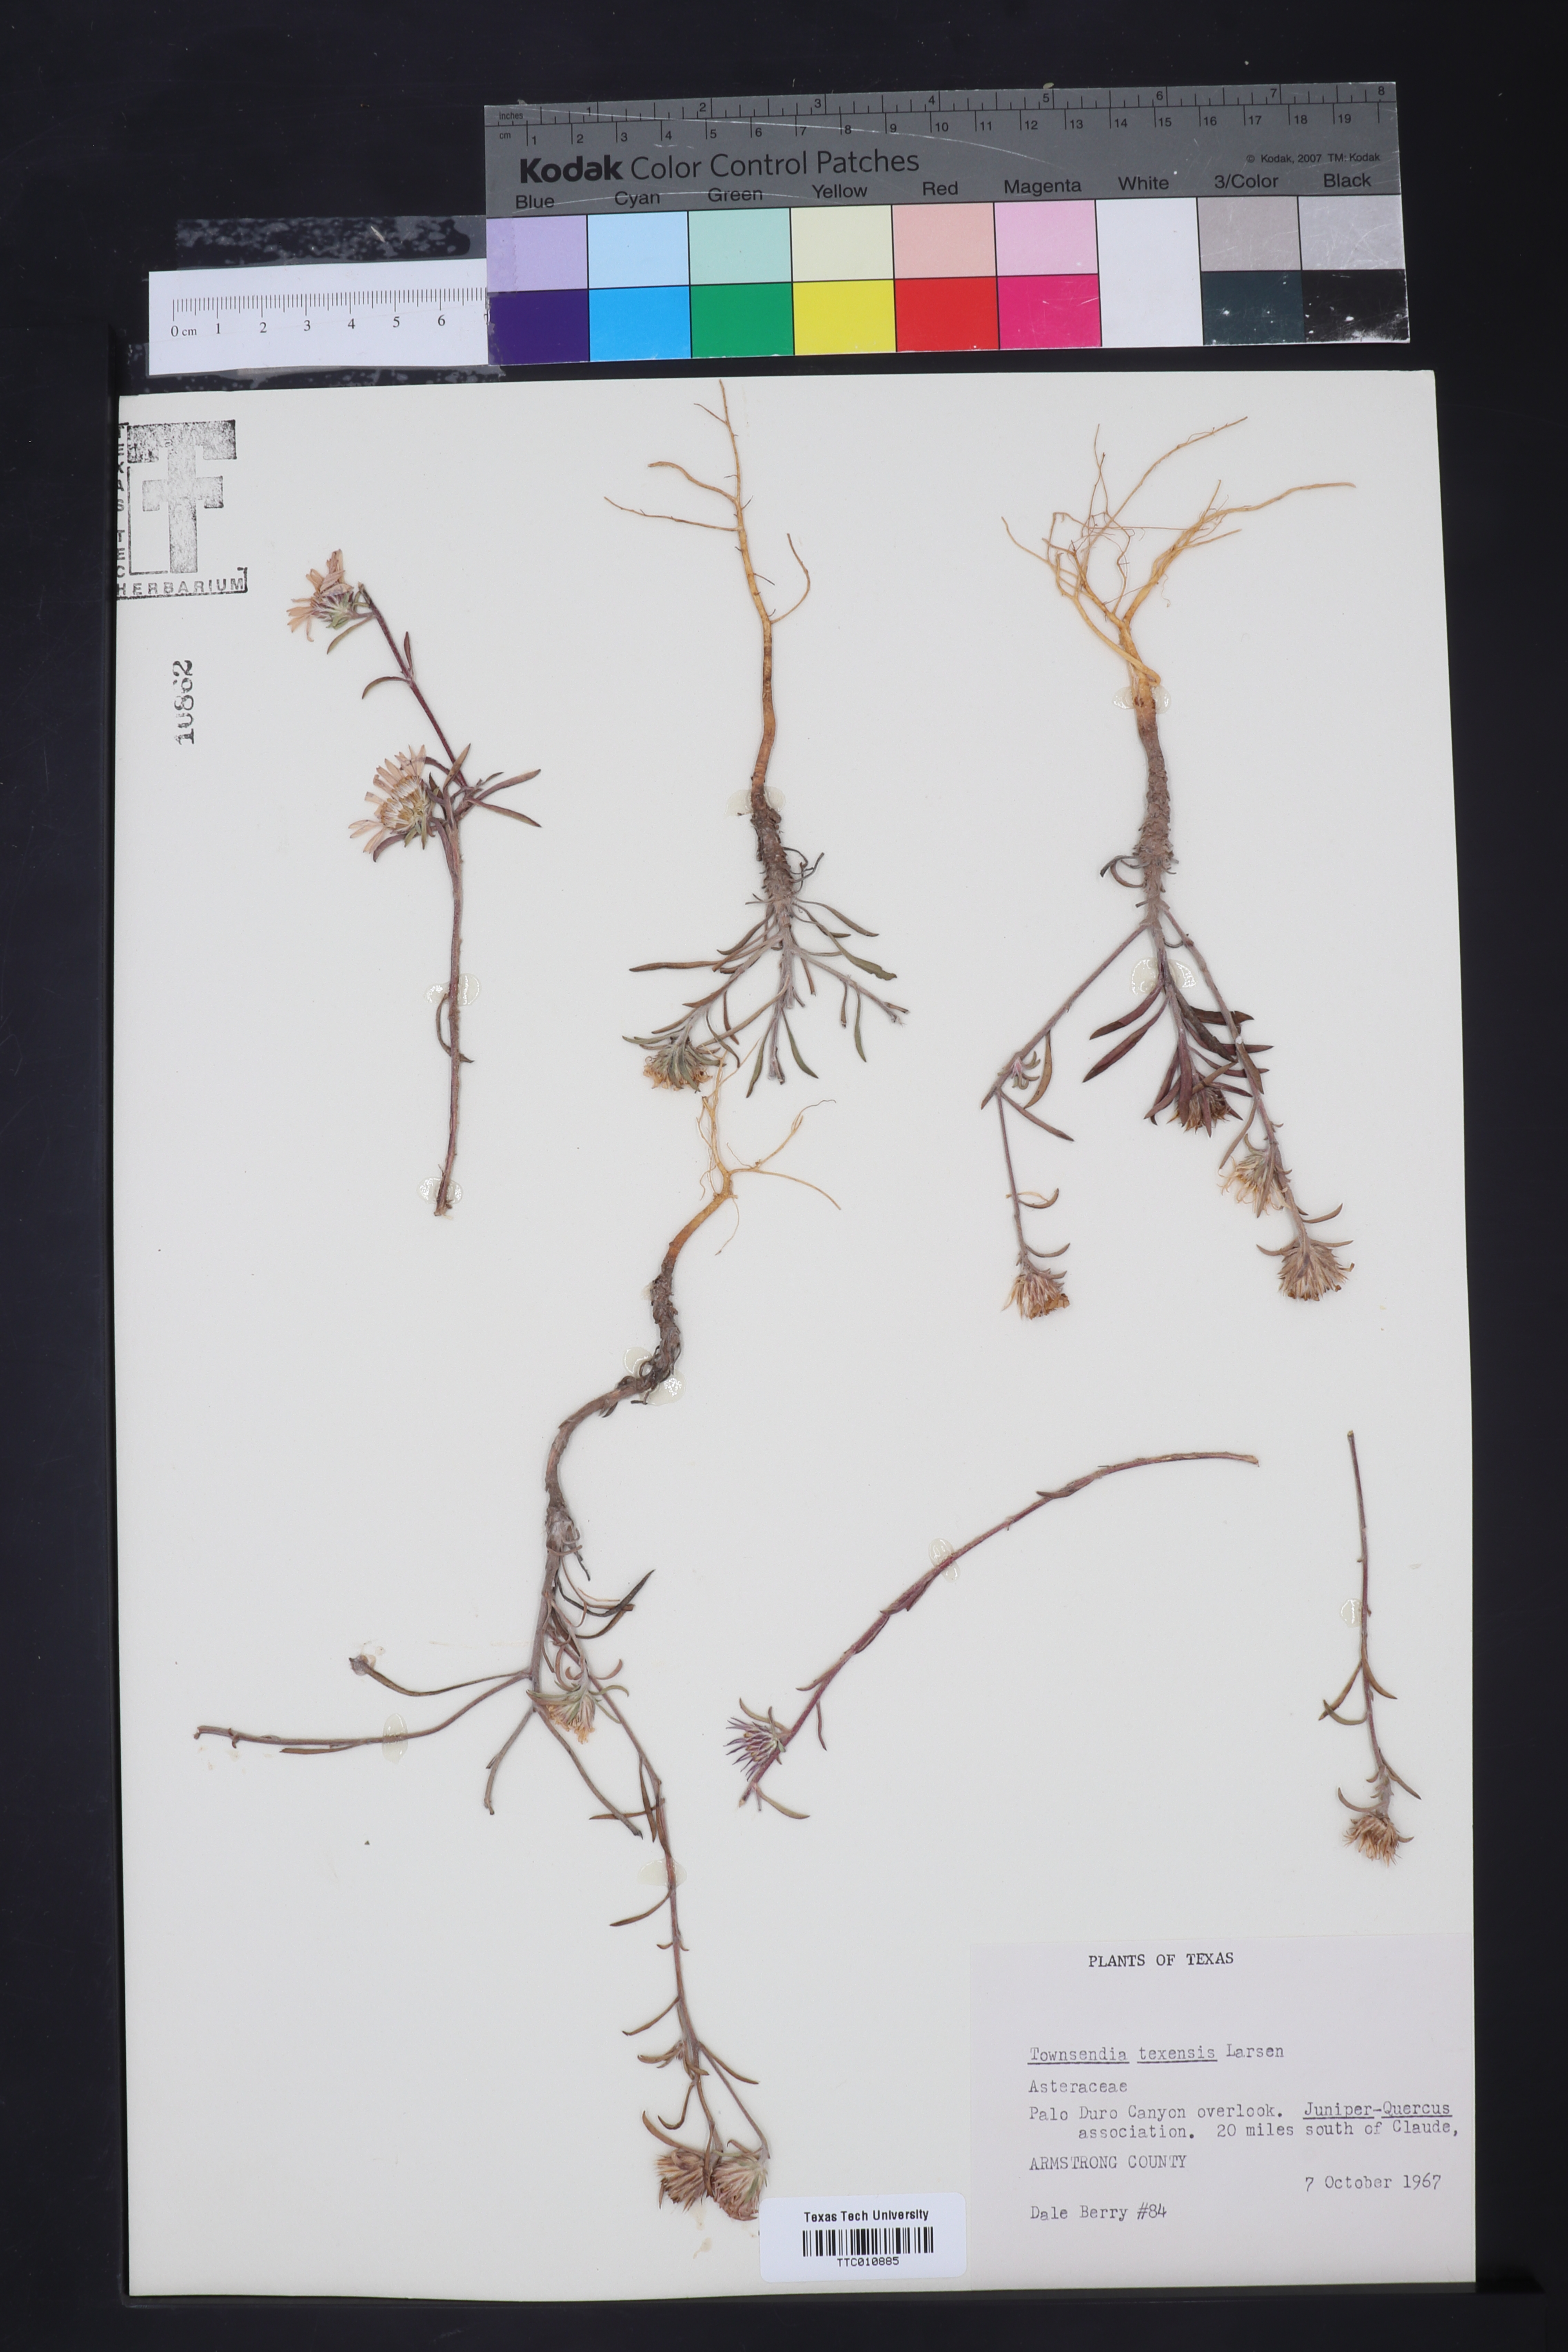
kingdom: Plantae
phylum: Tracheophyta
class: Magnoliopsida
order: Asterales
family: Asteraceae
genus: Townsendia
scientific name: Townsendia texensis
